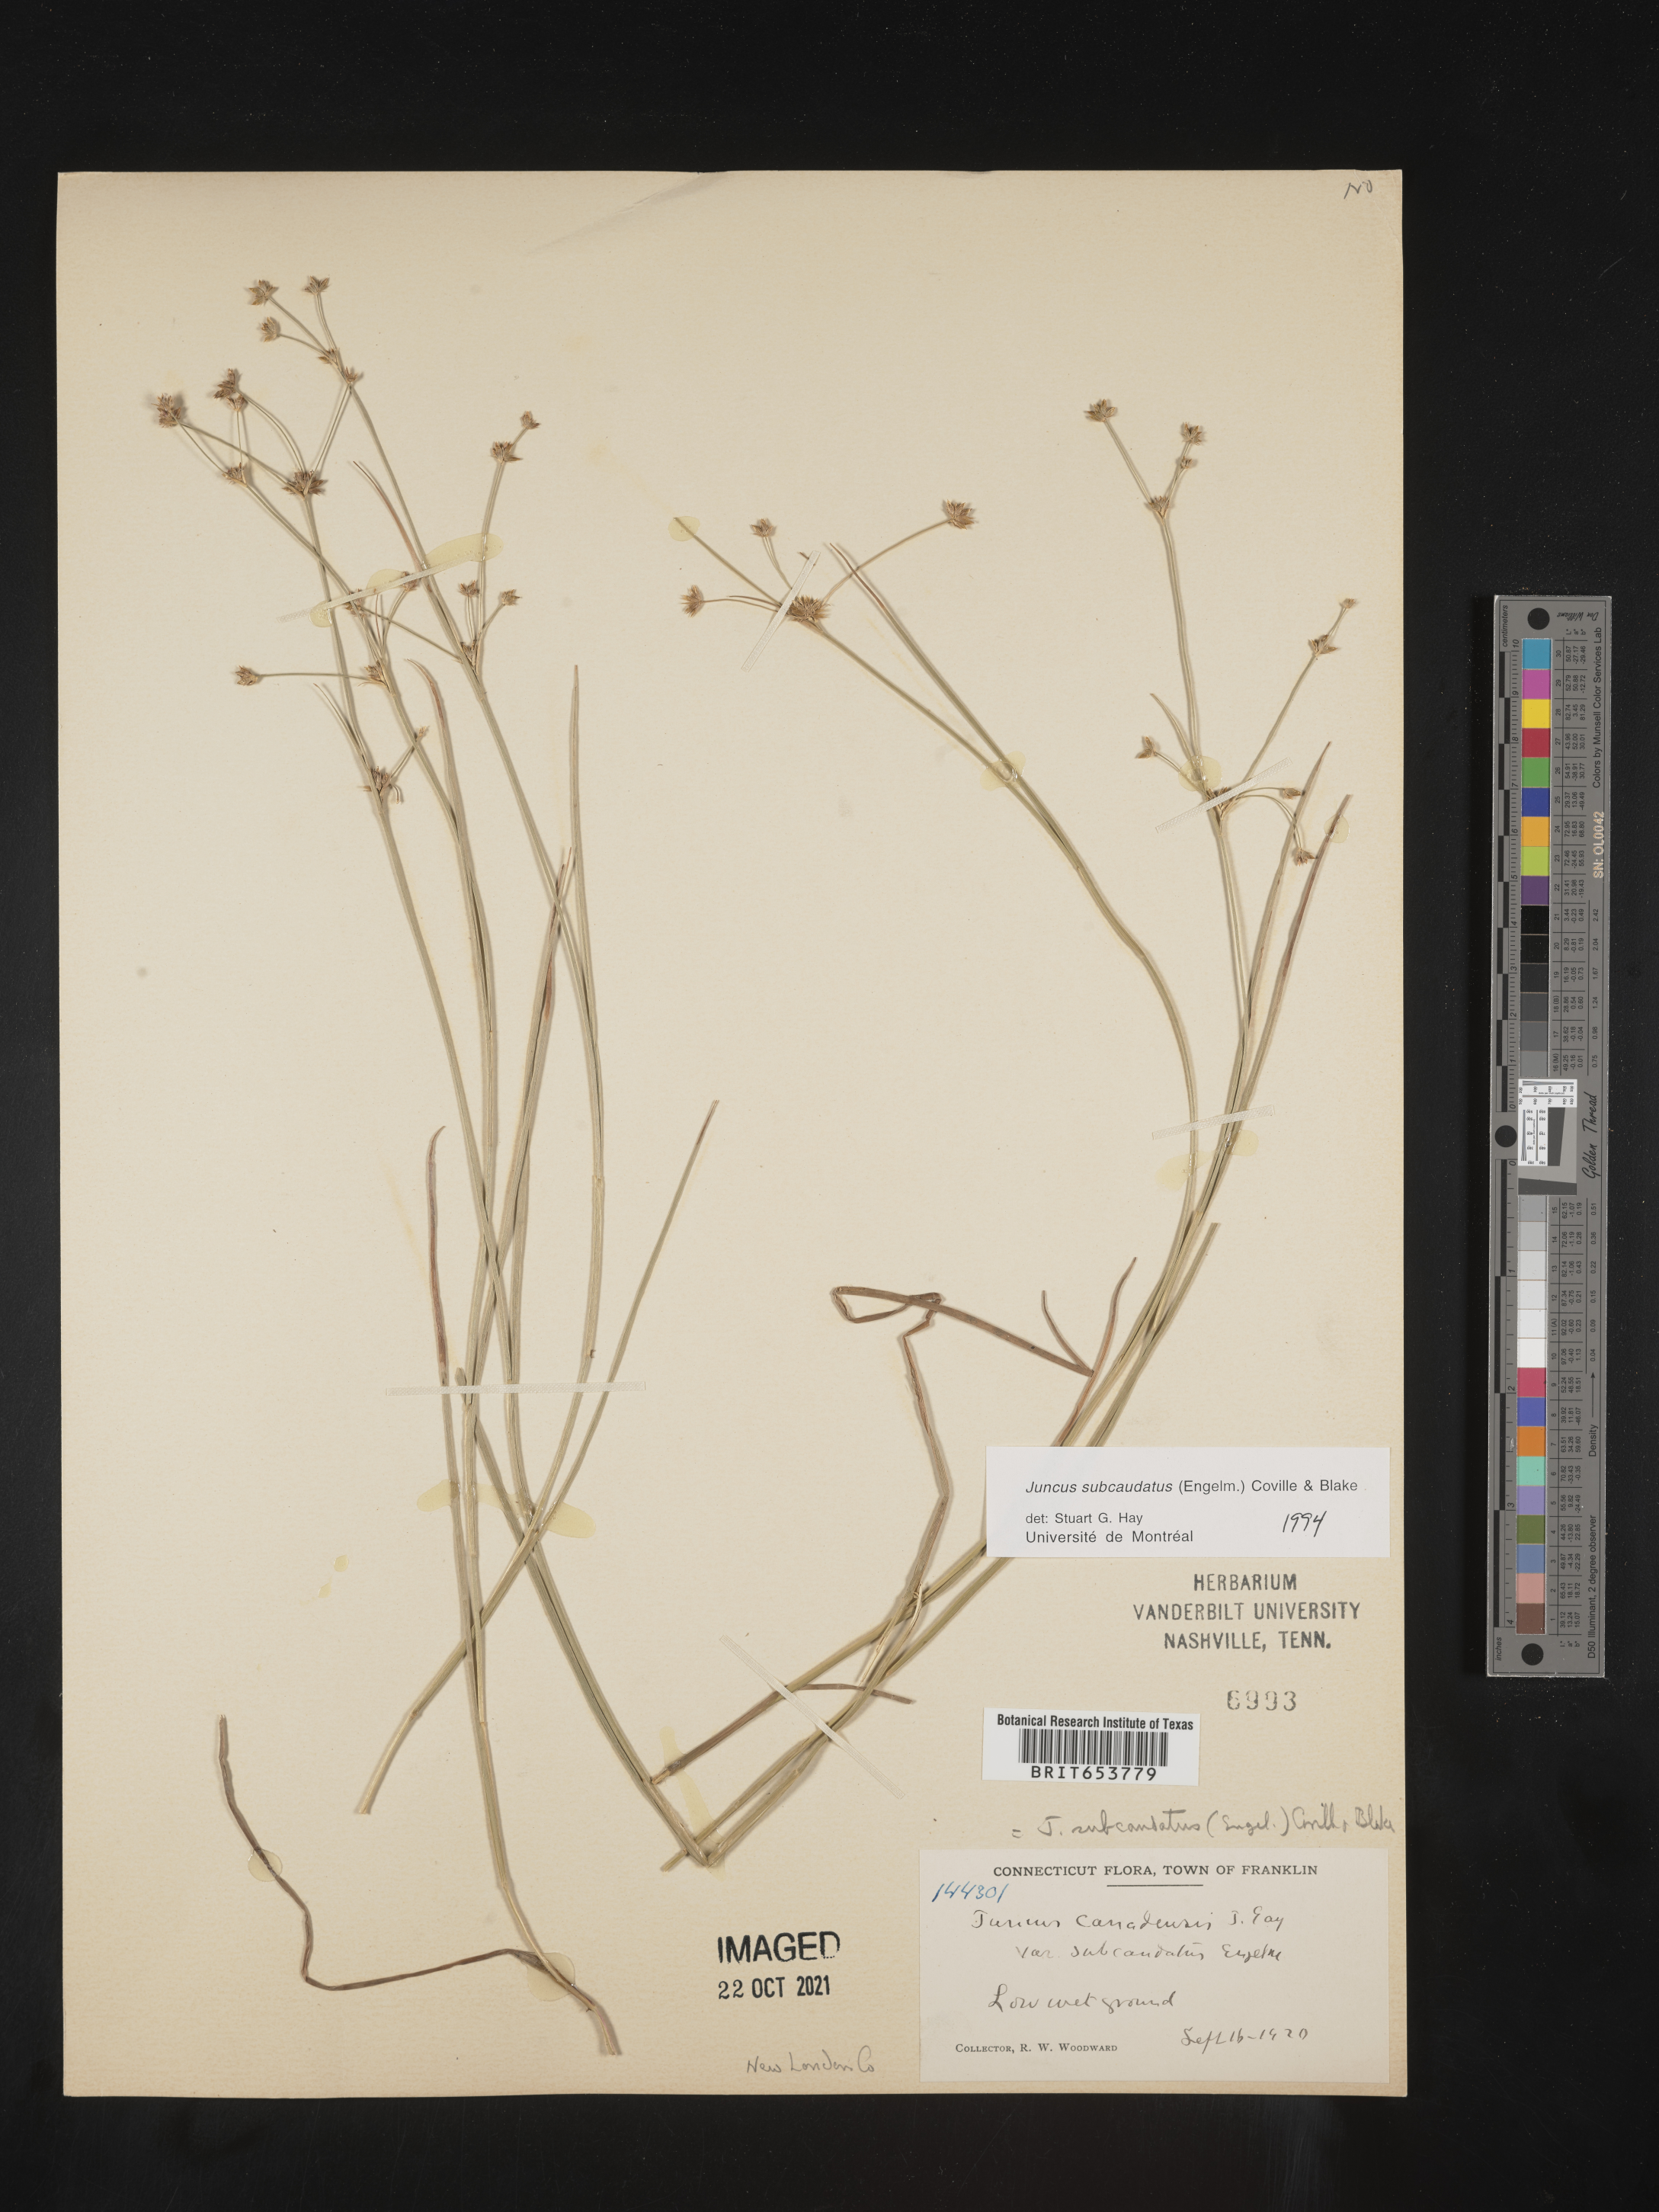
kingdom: Plantae
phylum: Tracheophyta
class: Liliopsida
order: Poales
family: Juncaceae
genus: Juncus
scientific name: Juncus subcaudatus
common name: Engelmann's rush
